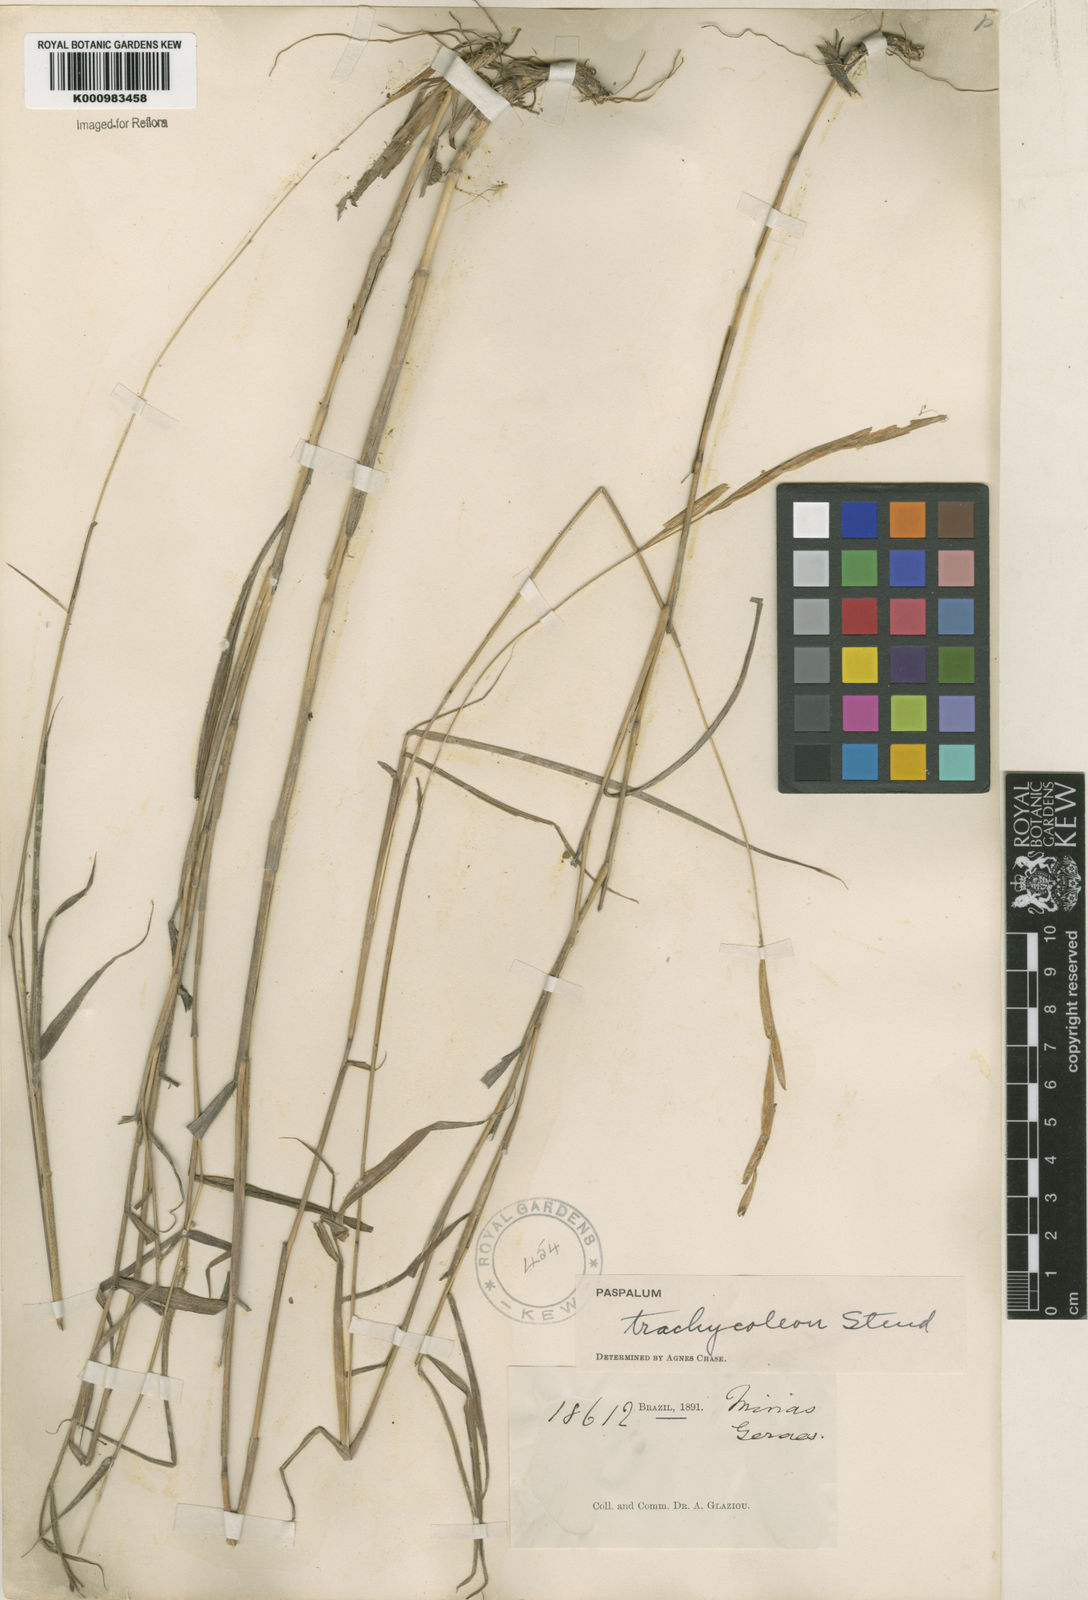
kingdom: Plantae
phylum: Tracheophyta
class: Liliopsida
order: Poales
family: Poaceae
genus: Paspalum
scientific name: Paspalum trachycoleon
